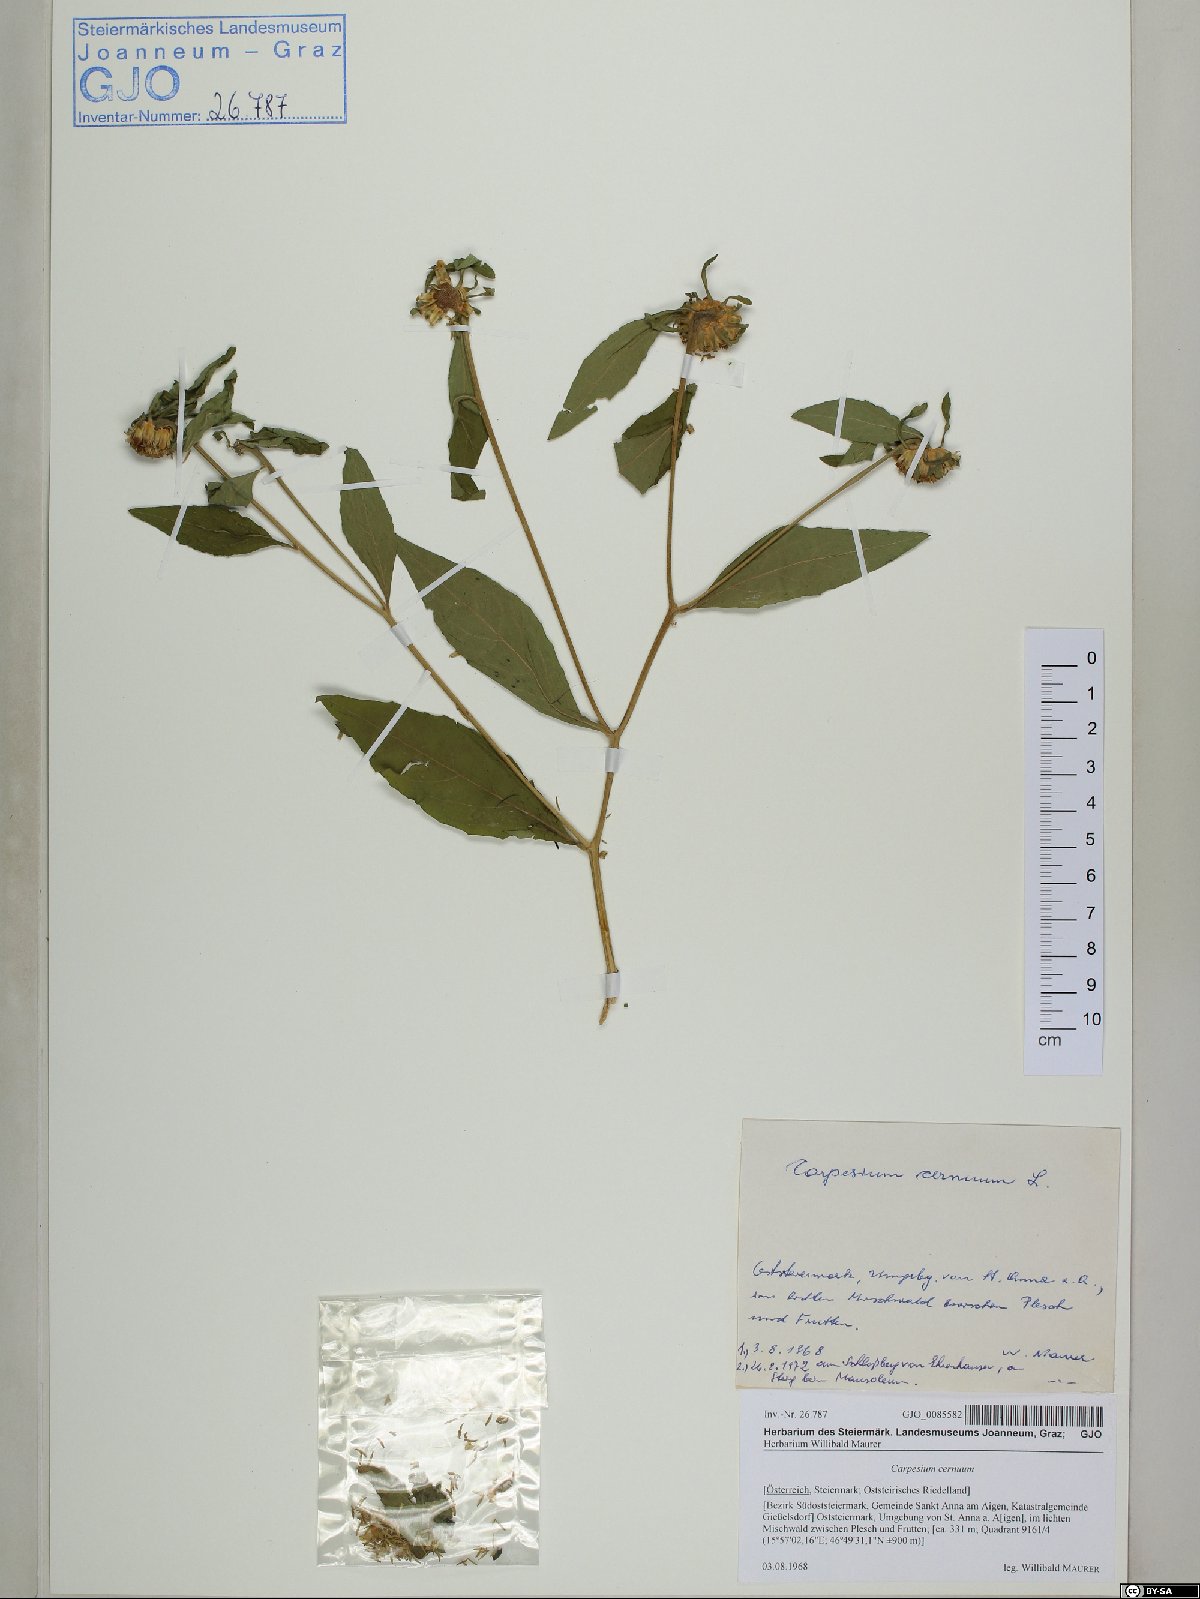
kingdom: Plantae
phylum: Tracheophyta
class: Magnoliopsida
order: Asterales
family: Asteraceae
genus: Carpesium
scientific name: Carpesium cernuum
